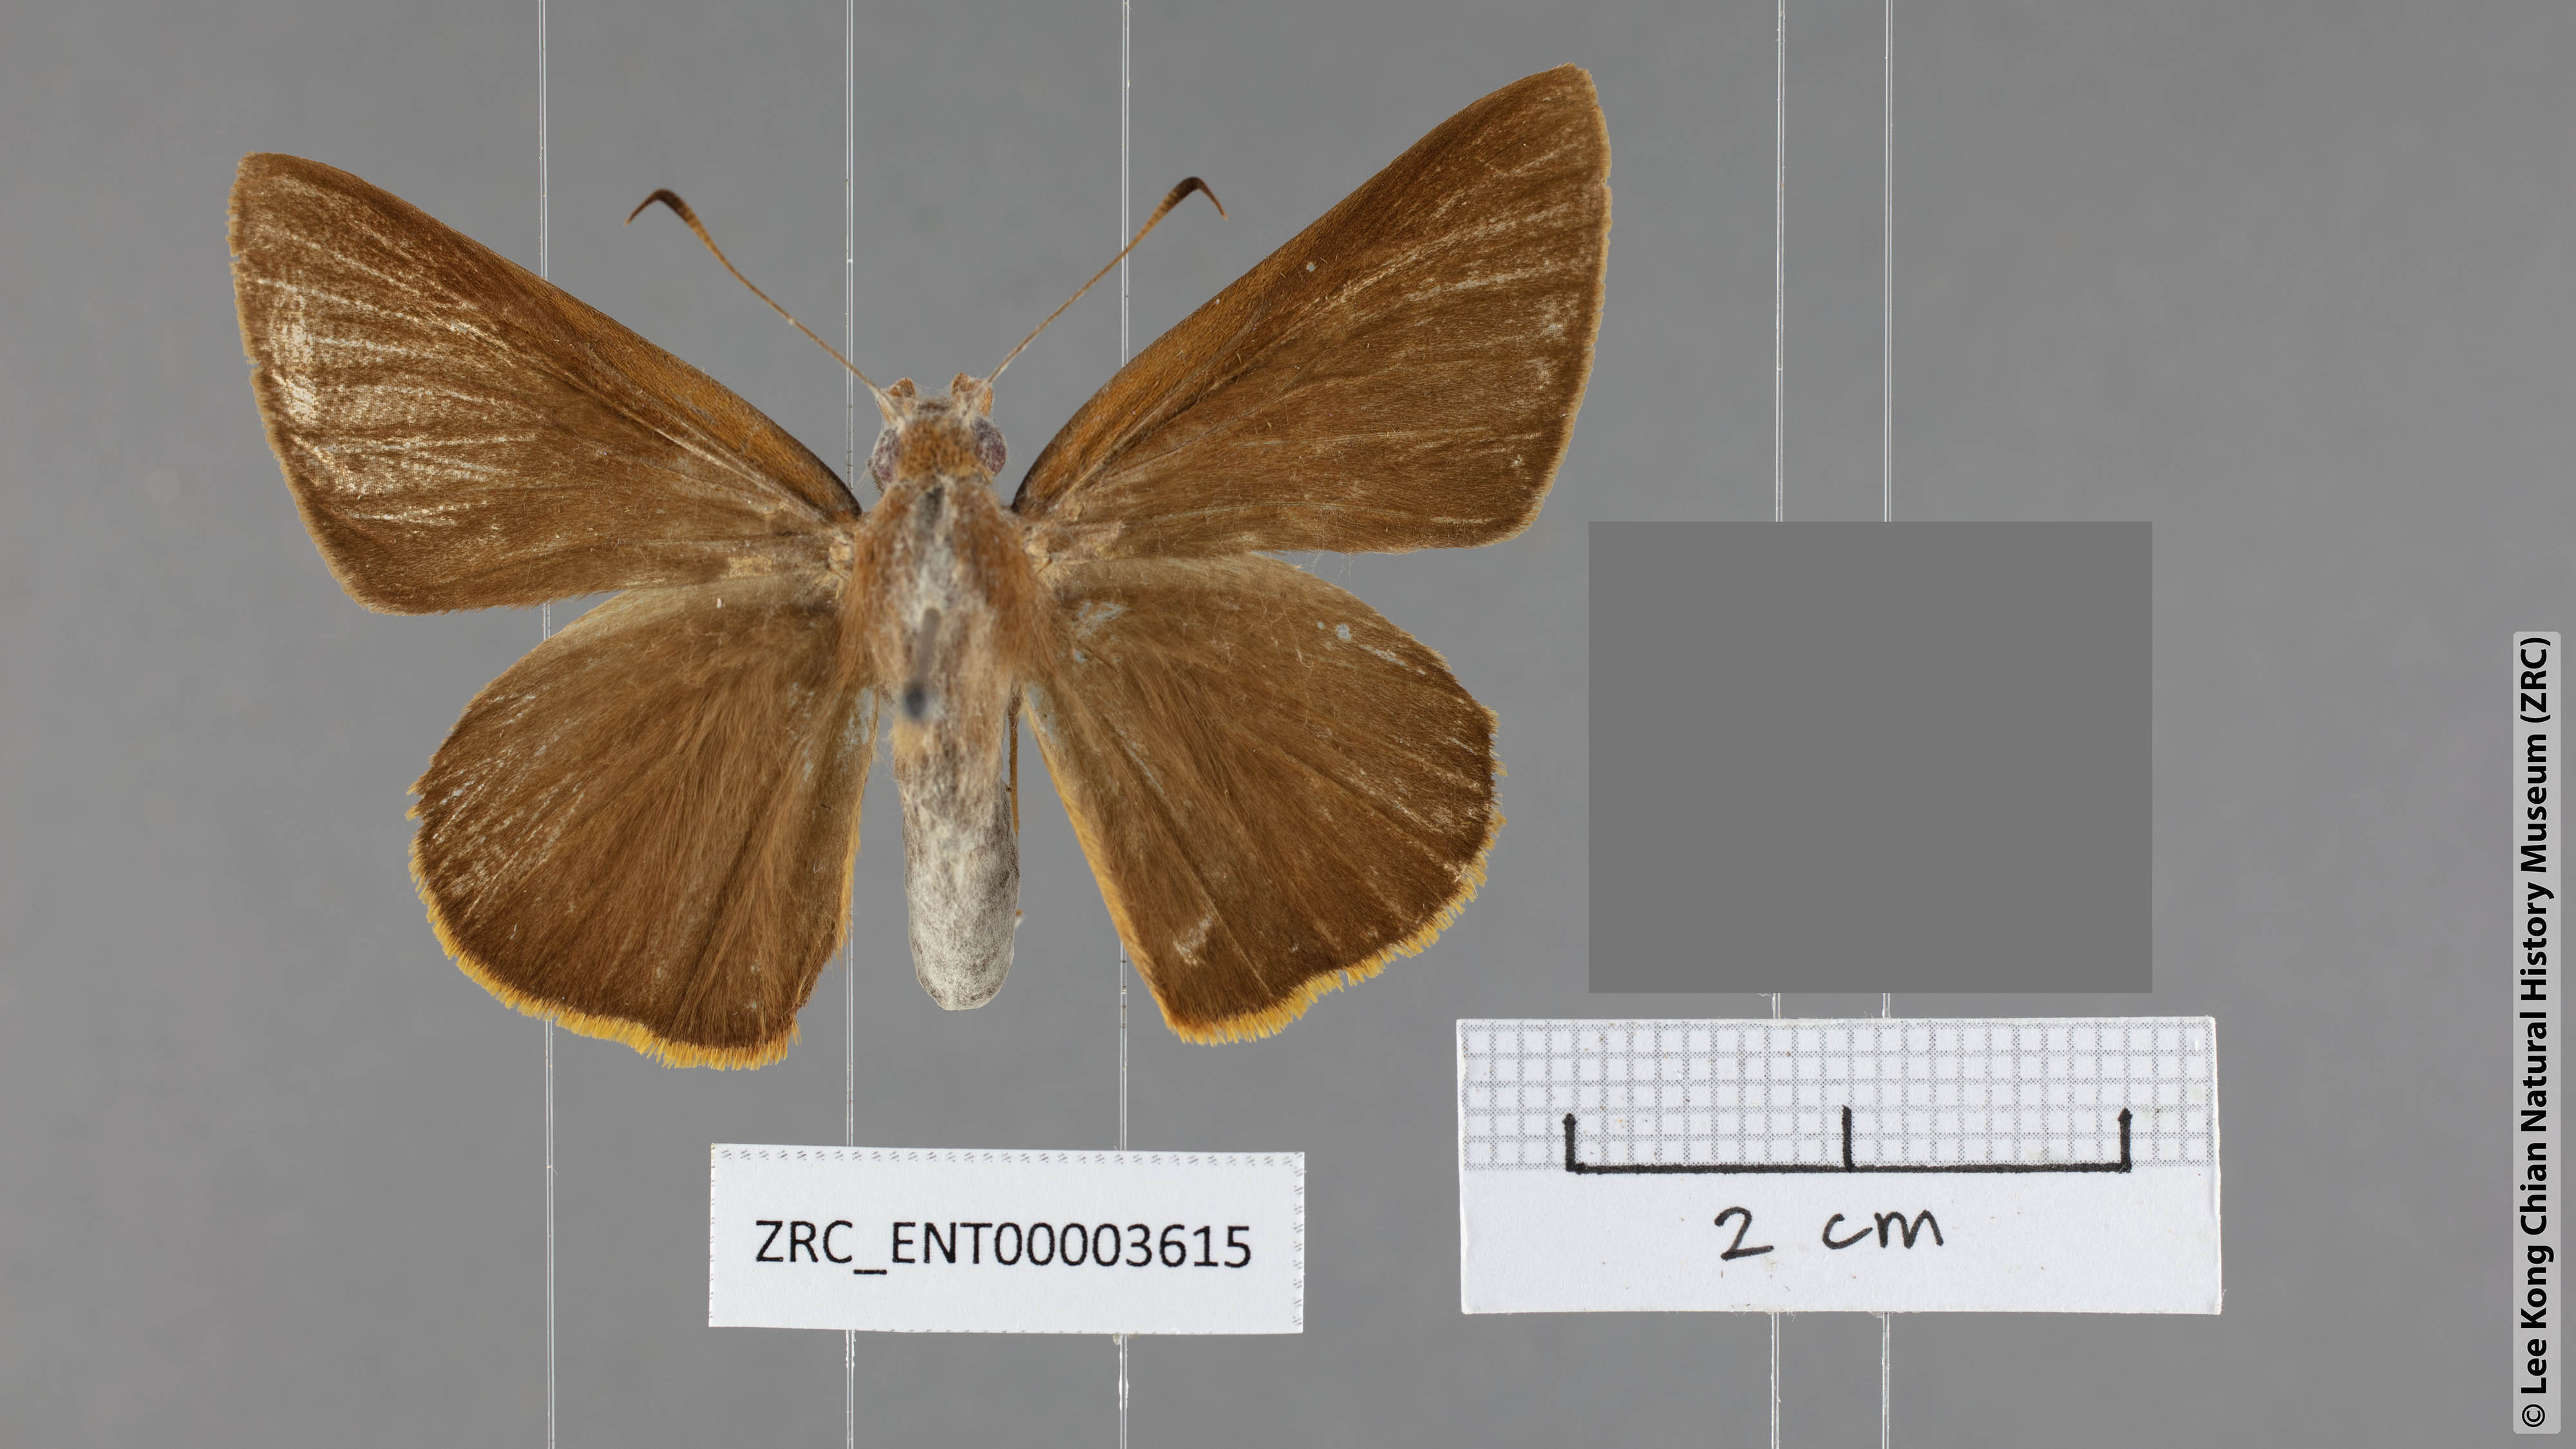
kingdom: Animalia
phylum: Arthropoda
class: Insecta
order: Lepidoptera
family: Hesperiidae
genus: Zela
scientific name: Zela smaragdinus
